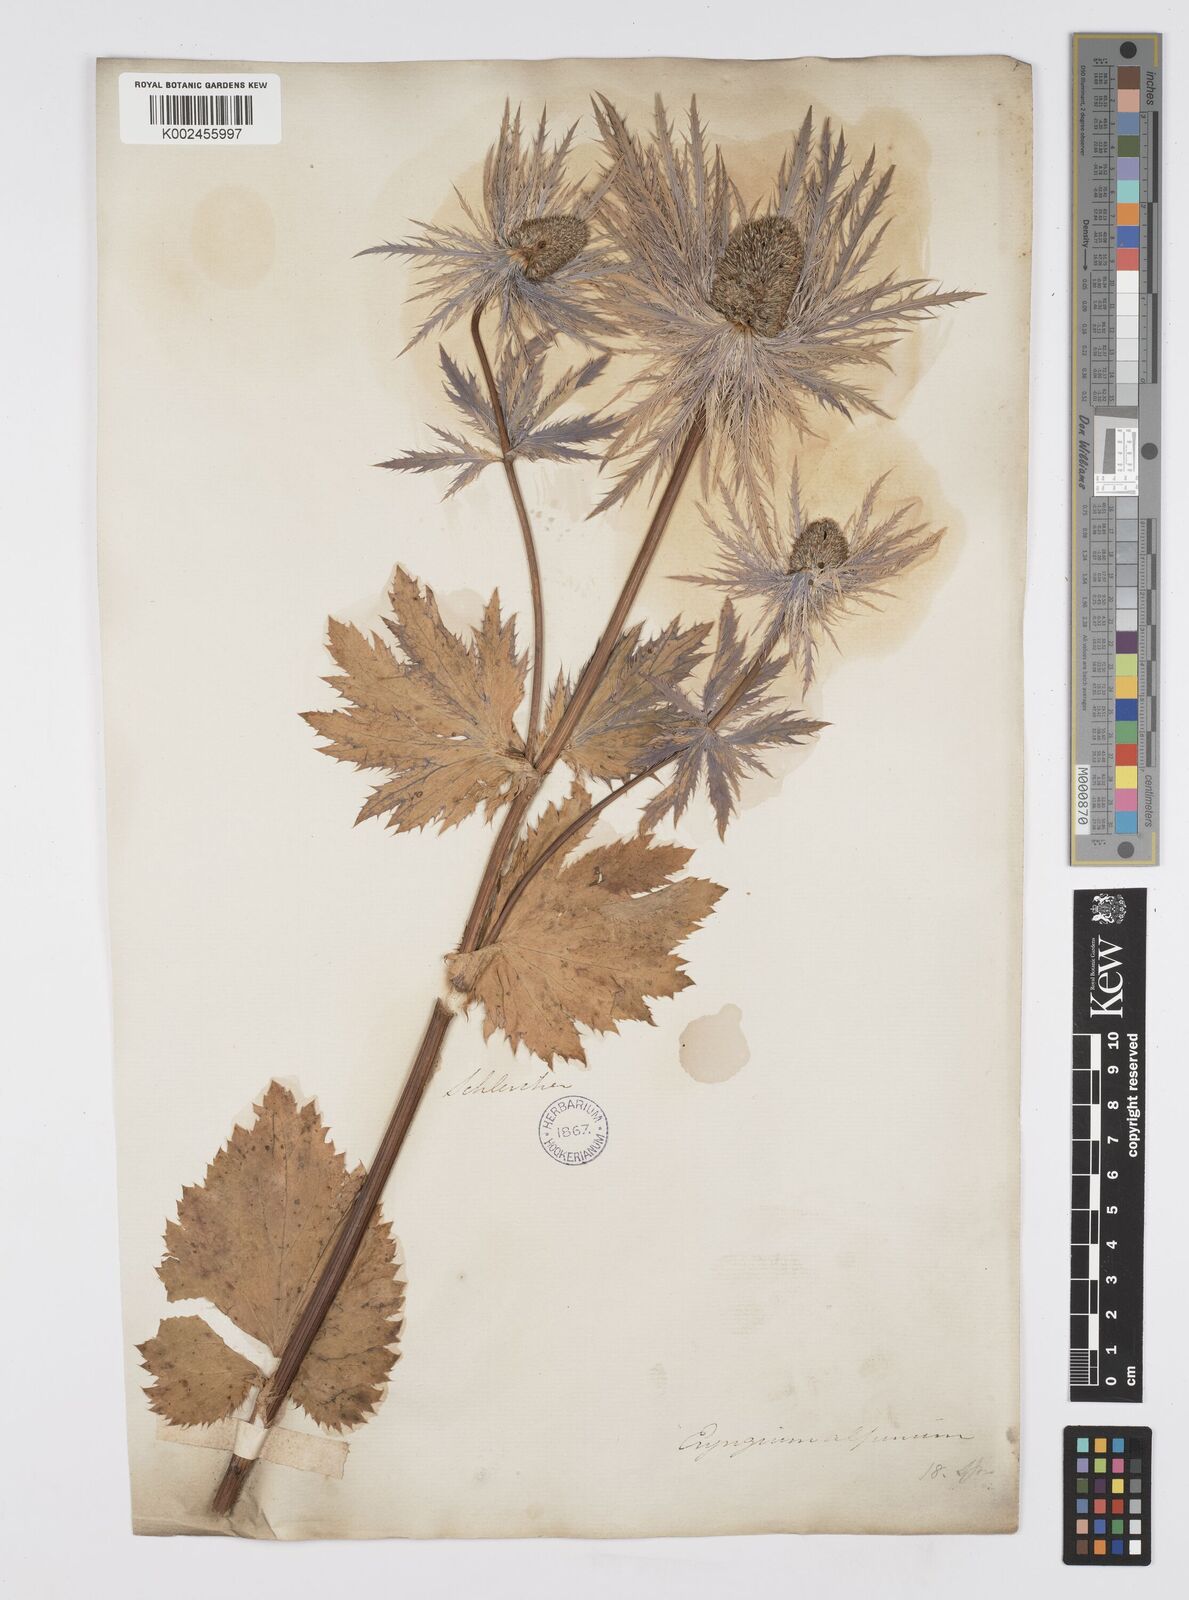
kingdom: Plantae
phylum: Tracheophyta
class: Magnoliopsida
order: Apiales
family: Apiaceae
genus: Eryngium
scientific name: Eryngium alpinum
